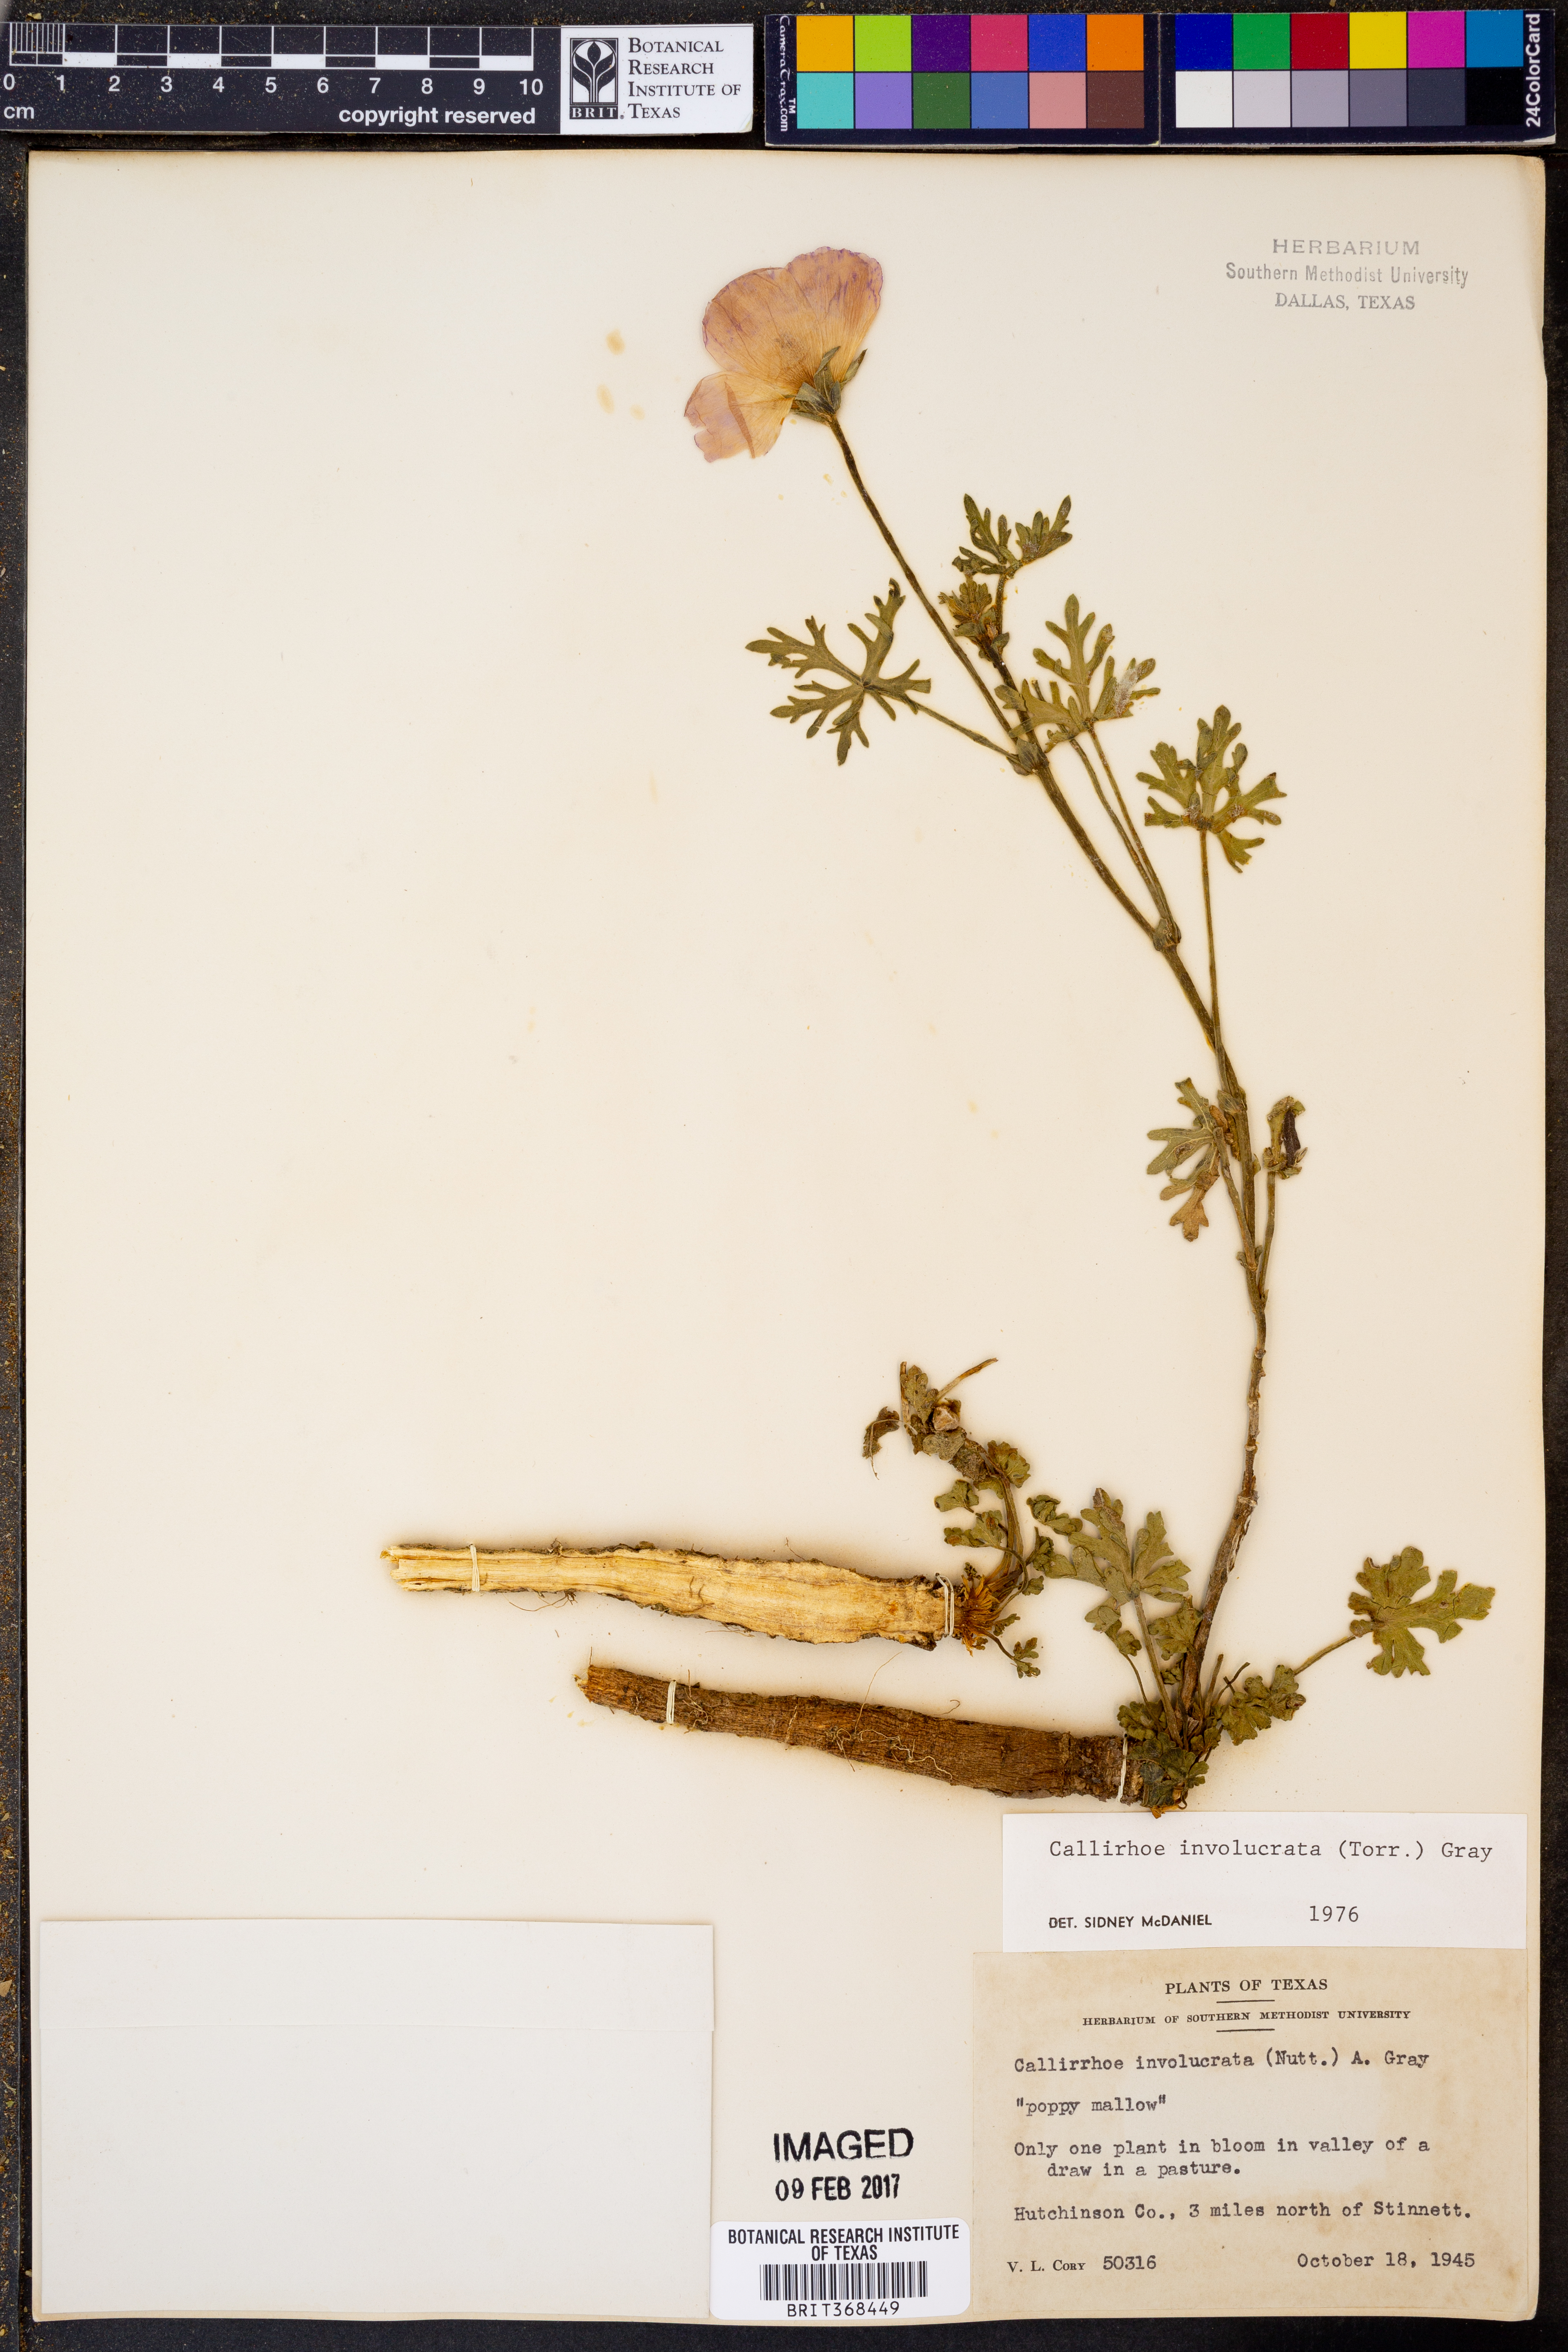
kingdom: Plantae
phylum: Tracheophyta
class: Magnoliopsida
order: Malvales
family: Malvaceae
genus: Callirhoe
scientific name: Callirhoe involucrata
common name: Purple poppy-mallow
